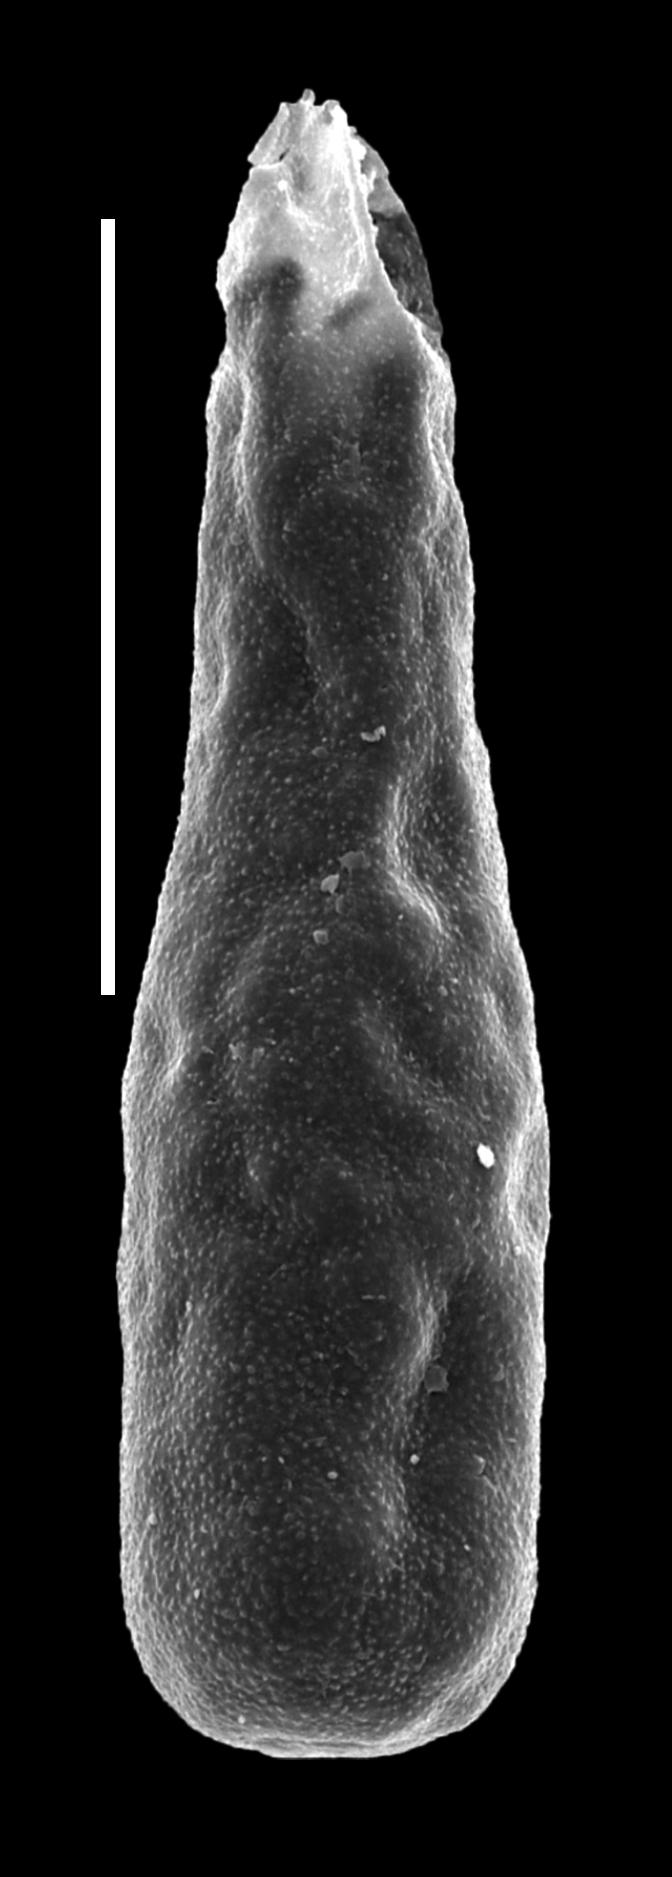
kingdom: Protozoa
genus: Belonechitina
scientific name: Belonechitina
